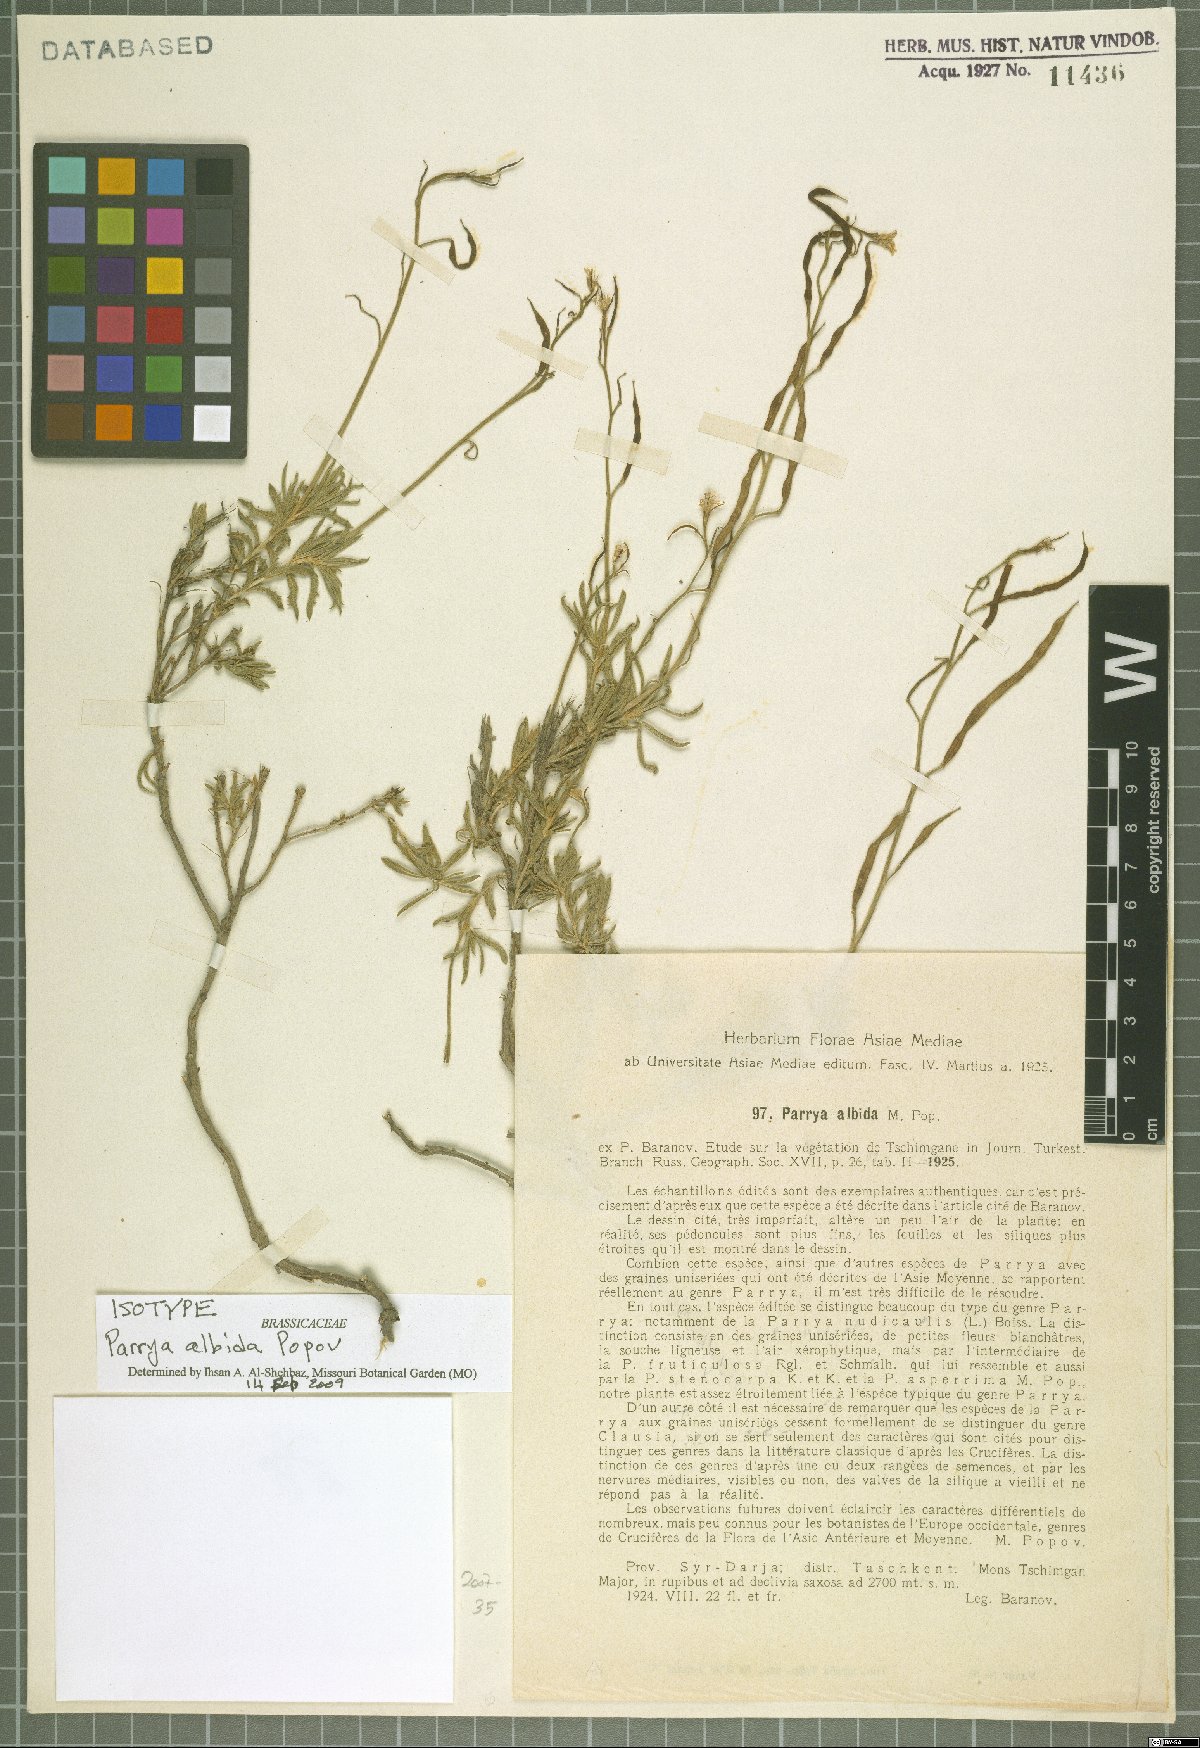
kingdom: Plantae
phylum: Tracheophyta
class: Magnoliopsida
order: Brassicales
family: Brassicaceae
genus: Parrya
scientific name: Parrya albida
